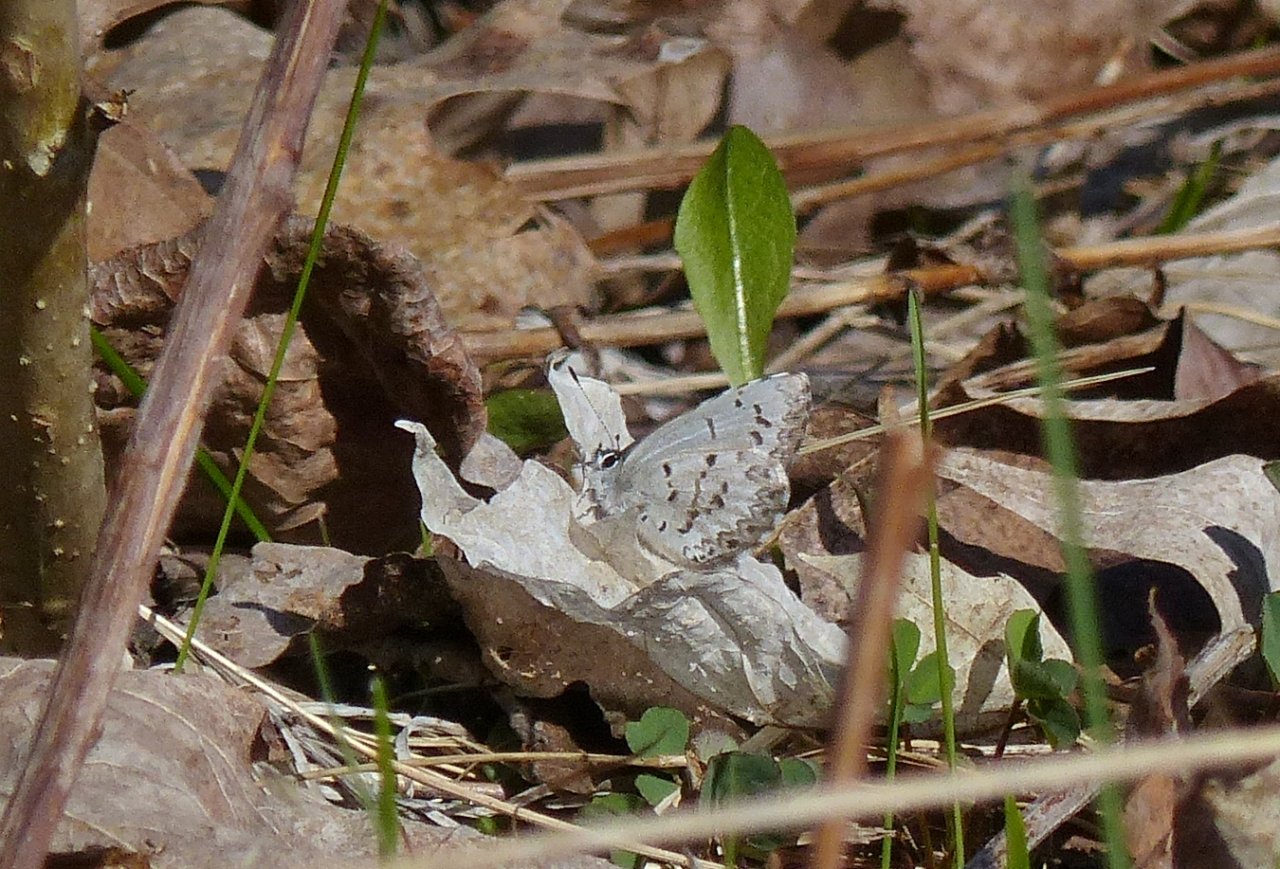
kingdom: Animalia
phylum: Arthropoda
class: Insecta
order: Lepidoptera
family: Lycaenidae
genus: Celastrina
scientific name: Celastrina lucia
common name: Northern Spring Azure
